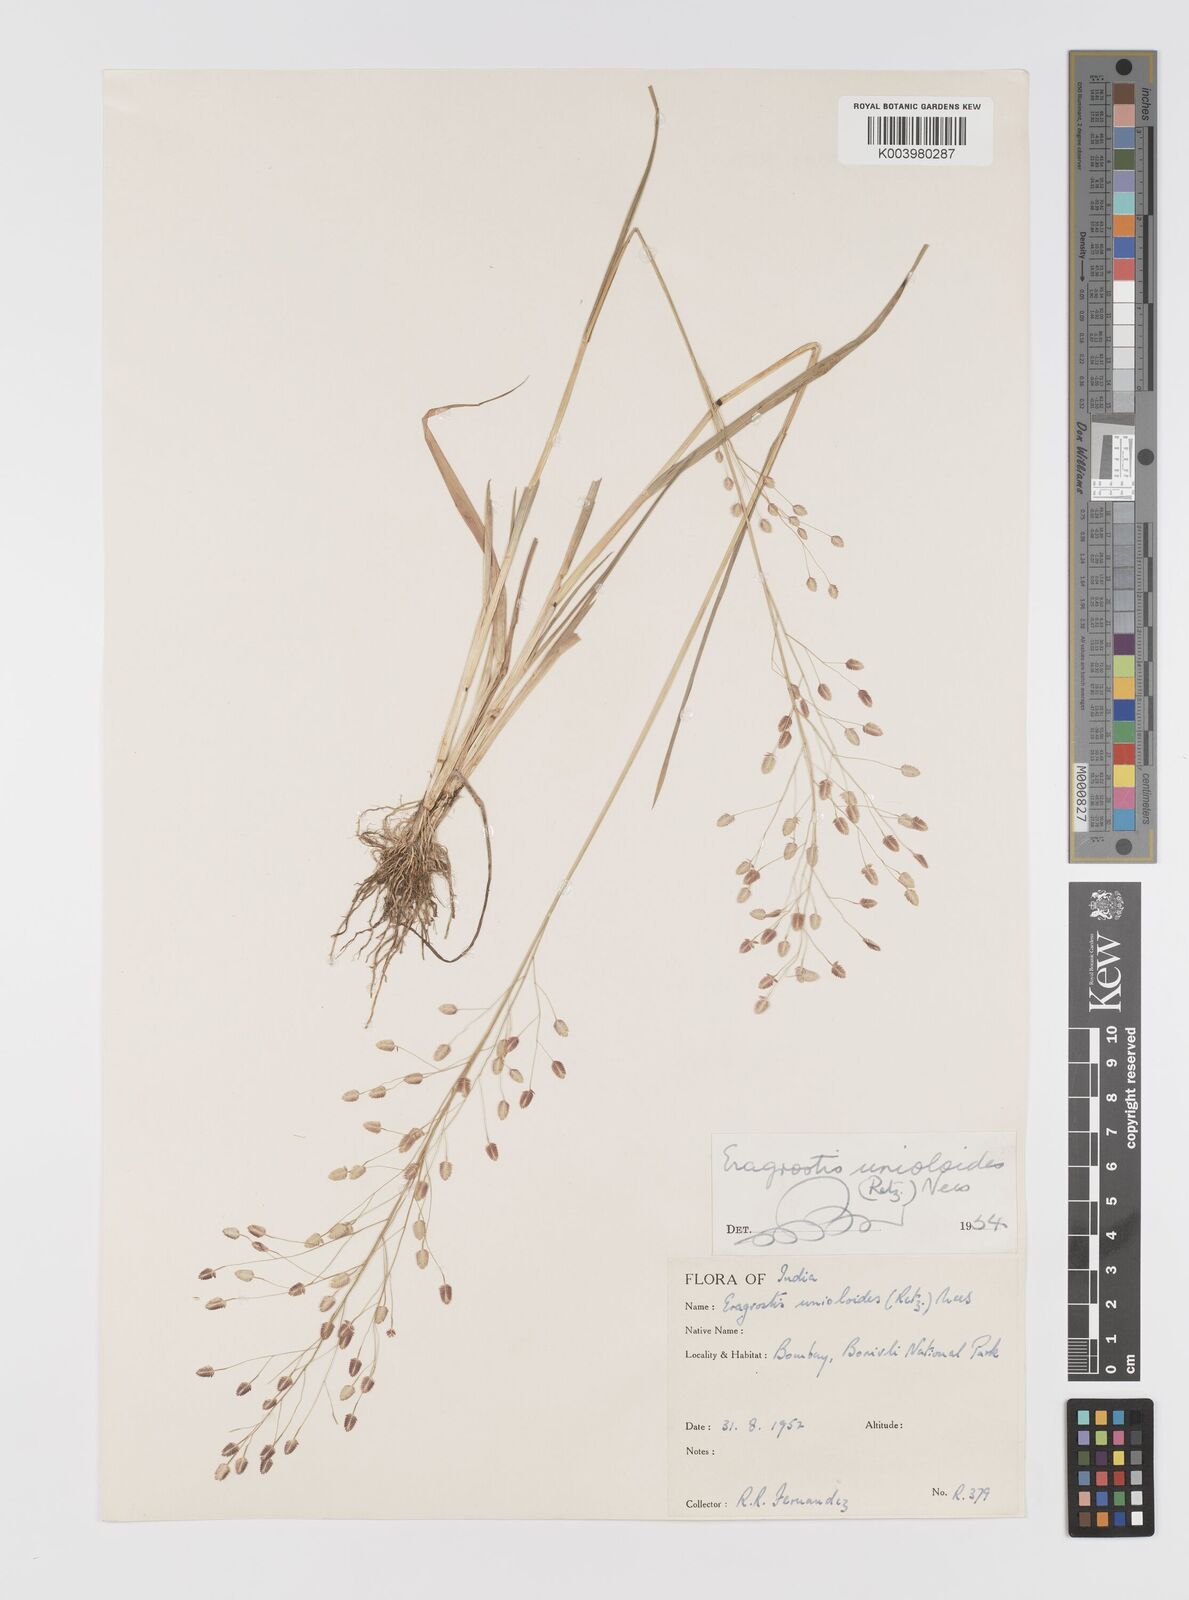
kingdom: Plantae
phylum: Tracheophyta
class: Liliopsida
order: Poales
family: Poaceae
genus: Eragrostis
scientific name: Eragrostis unioloides
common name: Chinese lovegrass
